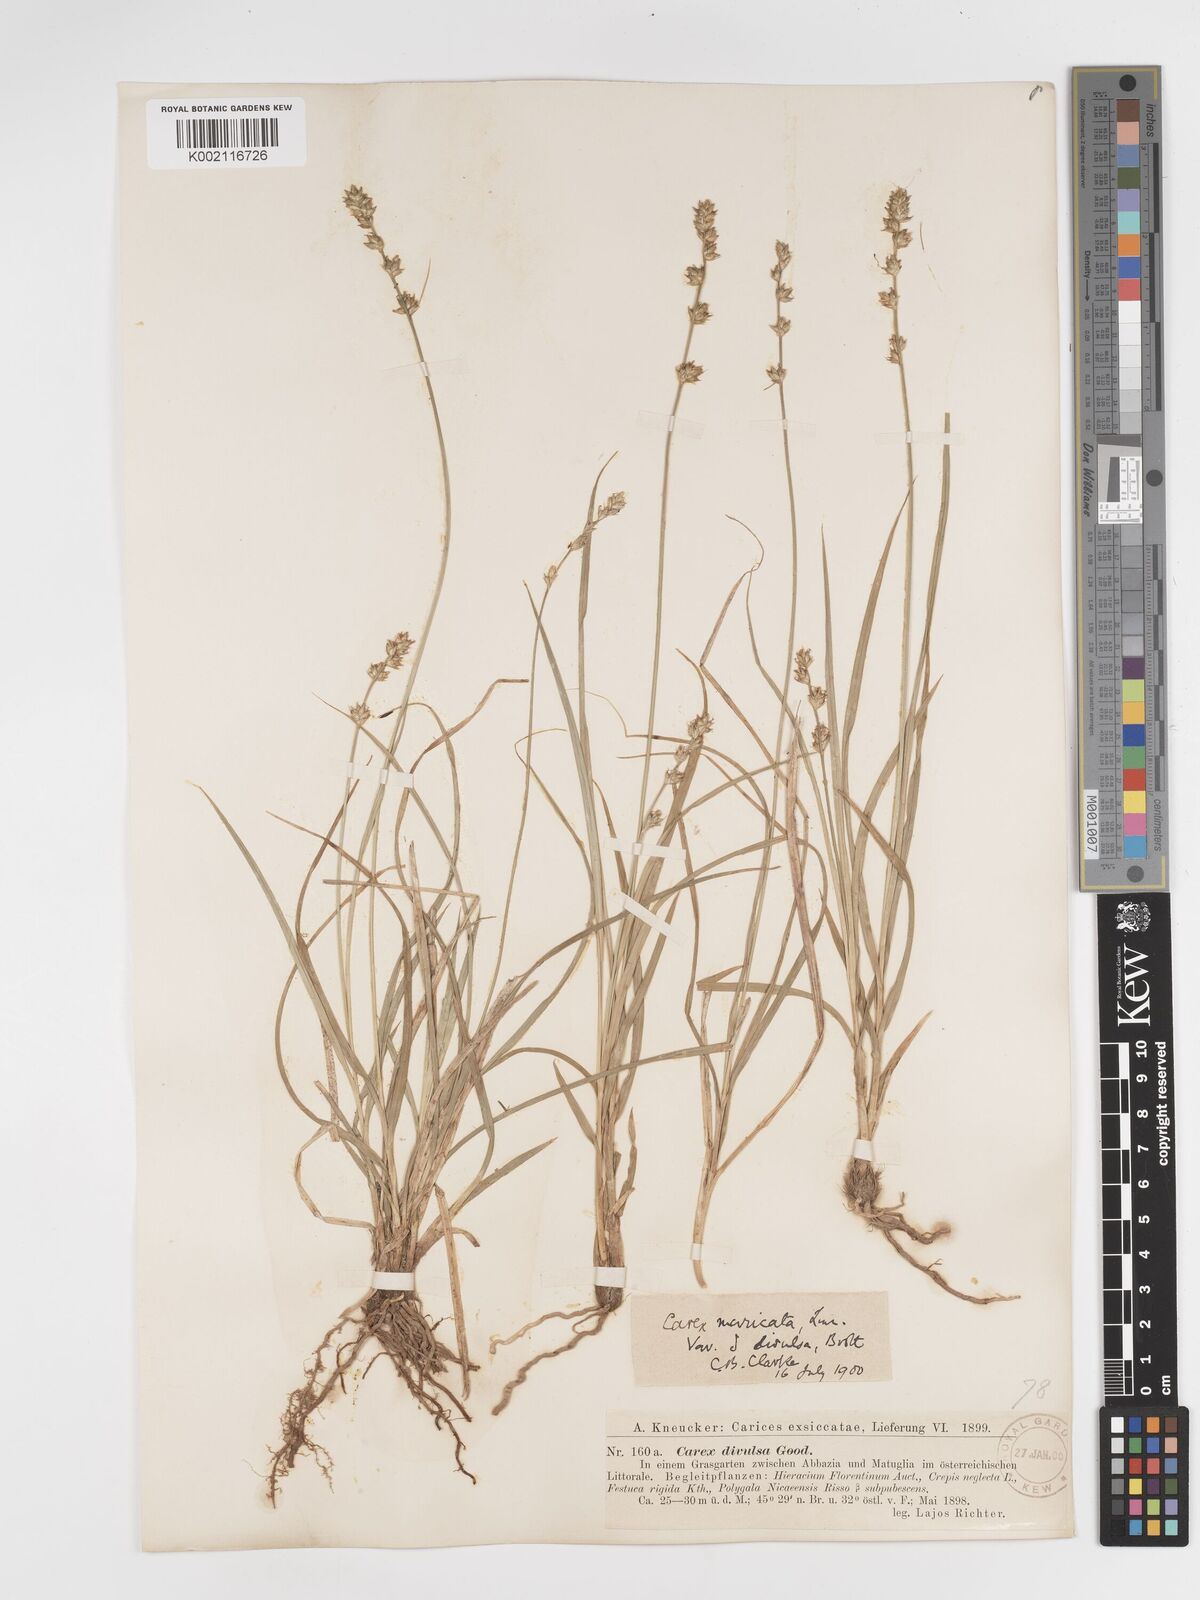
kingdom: Plantae
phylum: Tracheophyta
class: Liliopsida
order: Poales
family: Cyperaceae
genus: Carex
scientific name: Carex divulsa
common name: Grassland sedge
